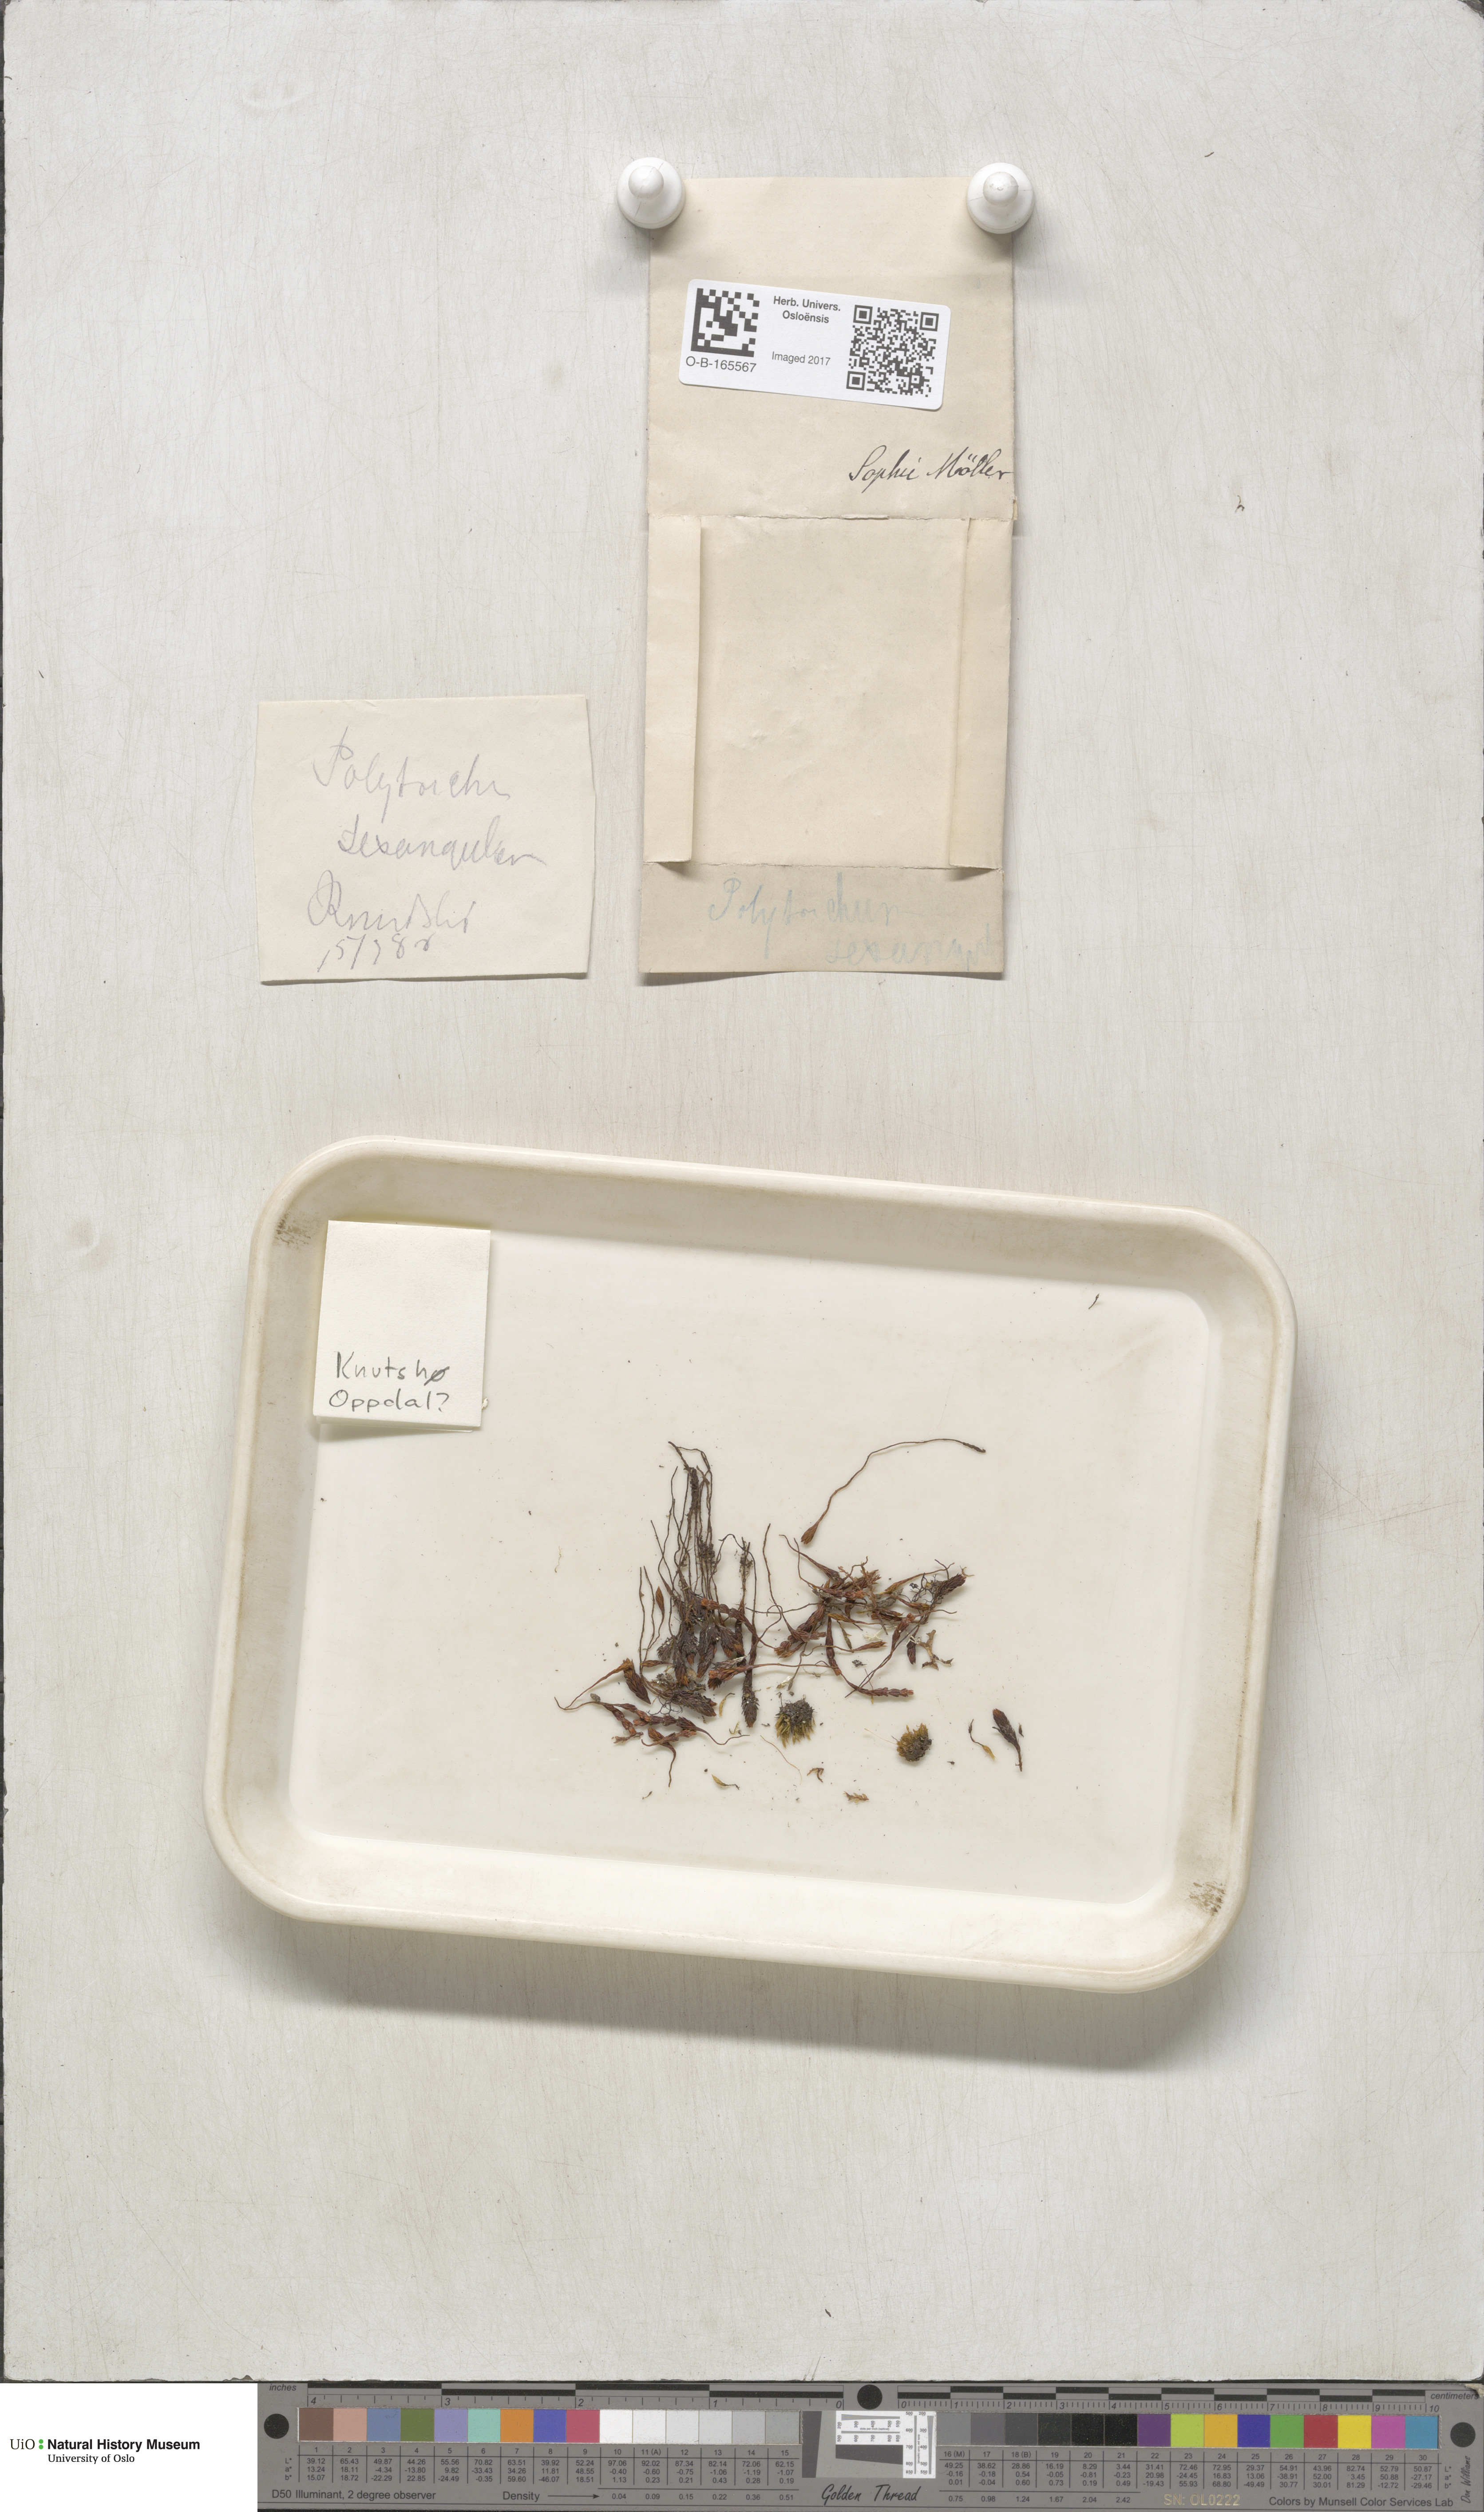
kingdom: Plantae
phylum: Bryophyta
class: Polytrichopsida
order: Polytrichales
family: Polytrichaceae
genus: Polytrichastrum
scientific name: Polytrichastrum sexangulare
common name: Northern haircap
